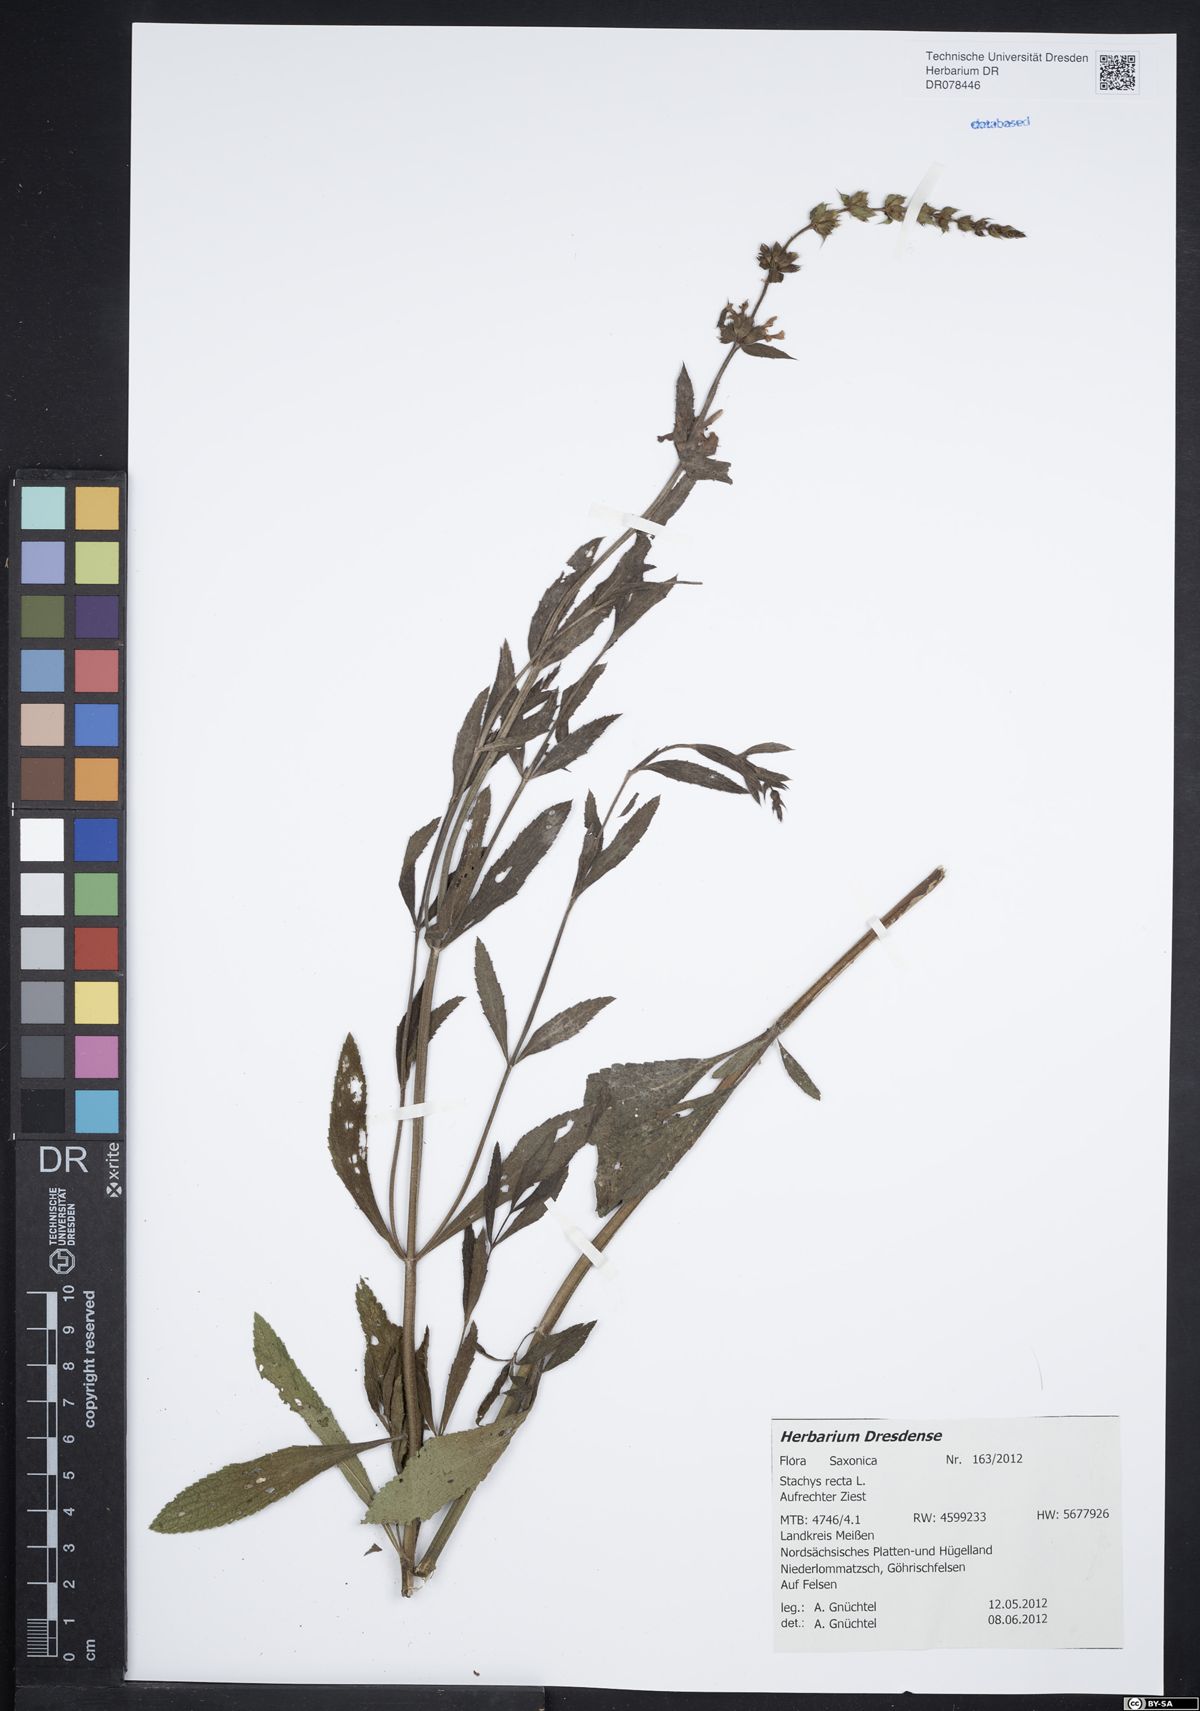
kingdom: Plantae
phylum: Tracheophyta
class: Magnoliopsida
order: Lamiales
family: Lamiaceae
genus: Stachys
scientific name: Stachys recta
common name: Perennial yellow-woundwort
